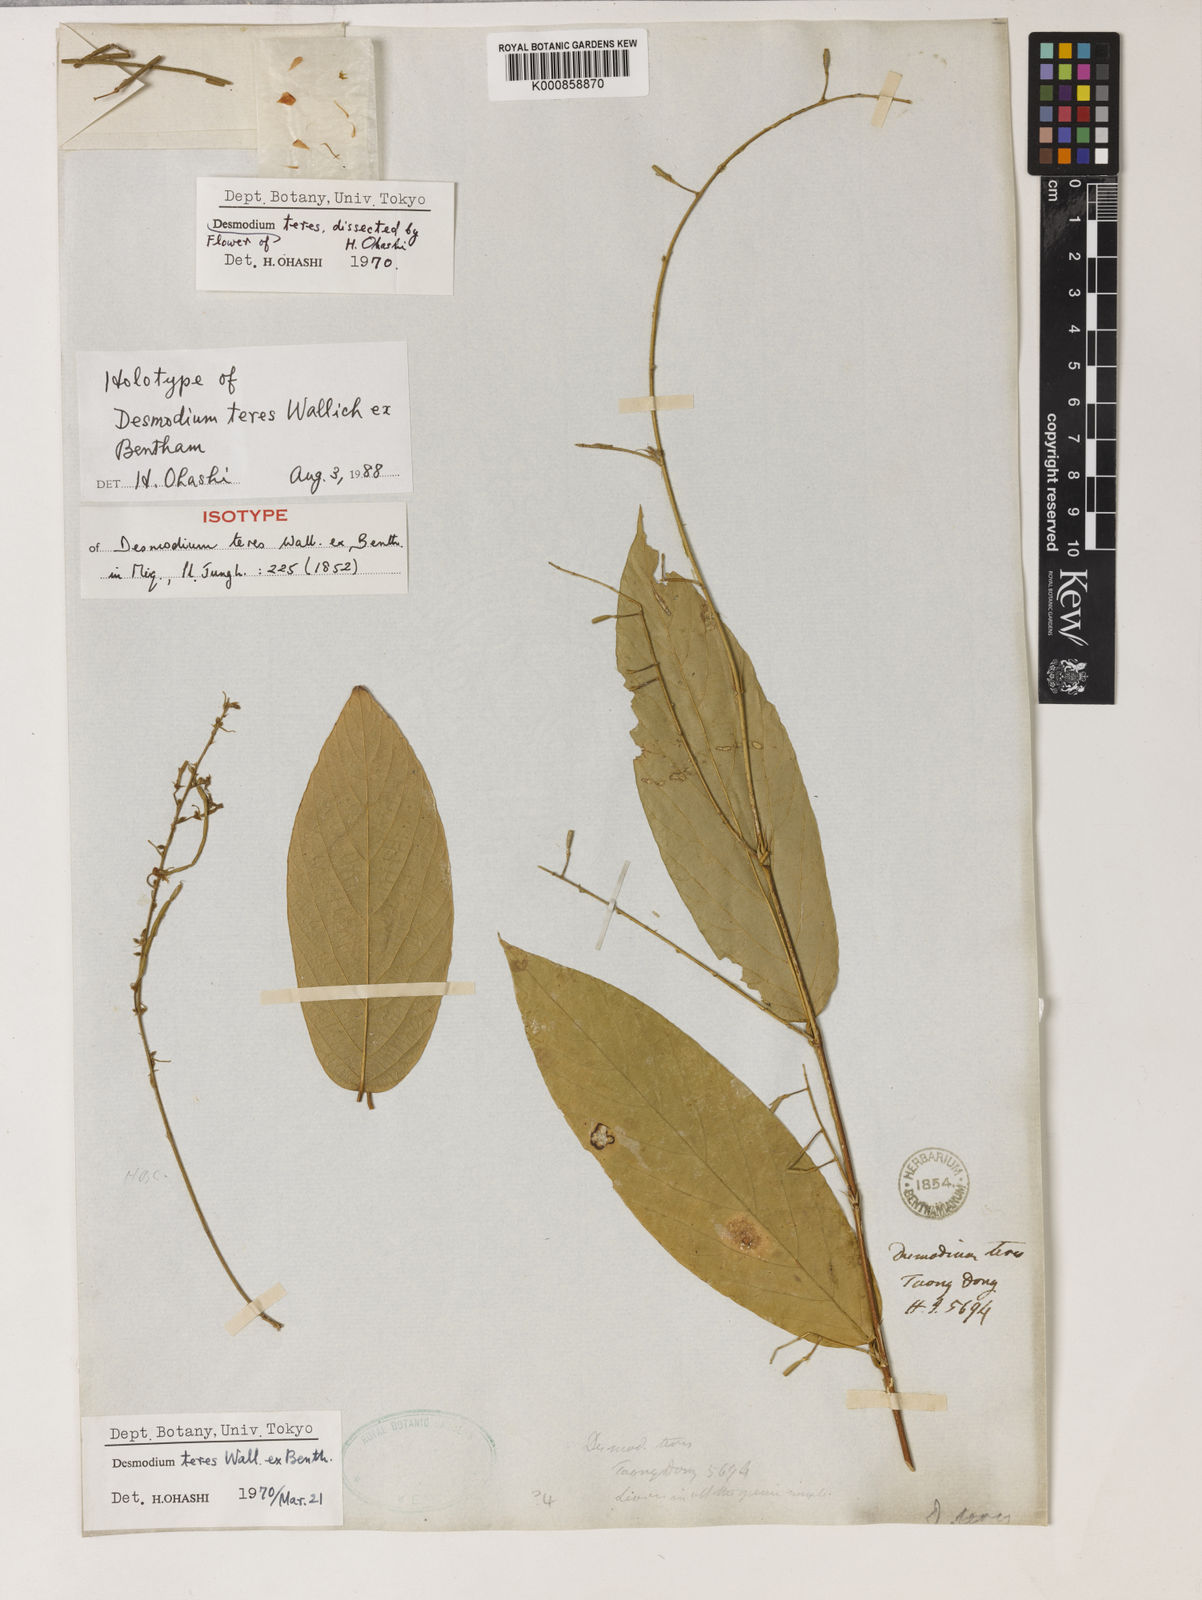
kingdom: Plantae
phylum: Tracheophyta
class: Magnoliopsida
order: Fabales
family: Fabaceae
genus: Desmodium
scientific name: Desmodium
